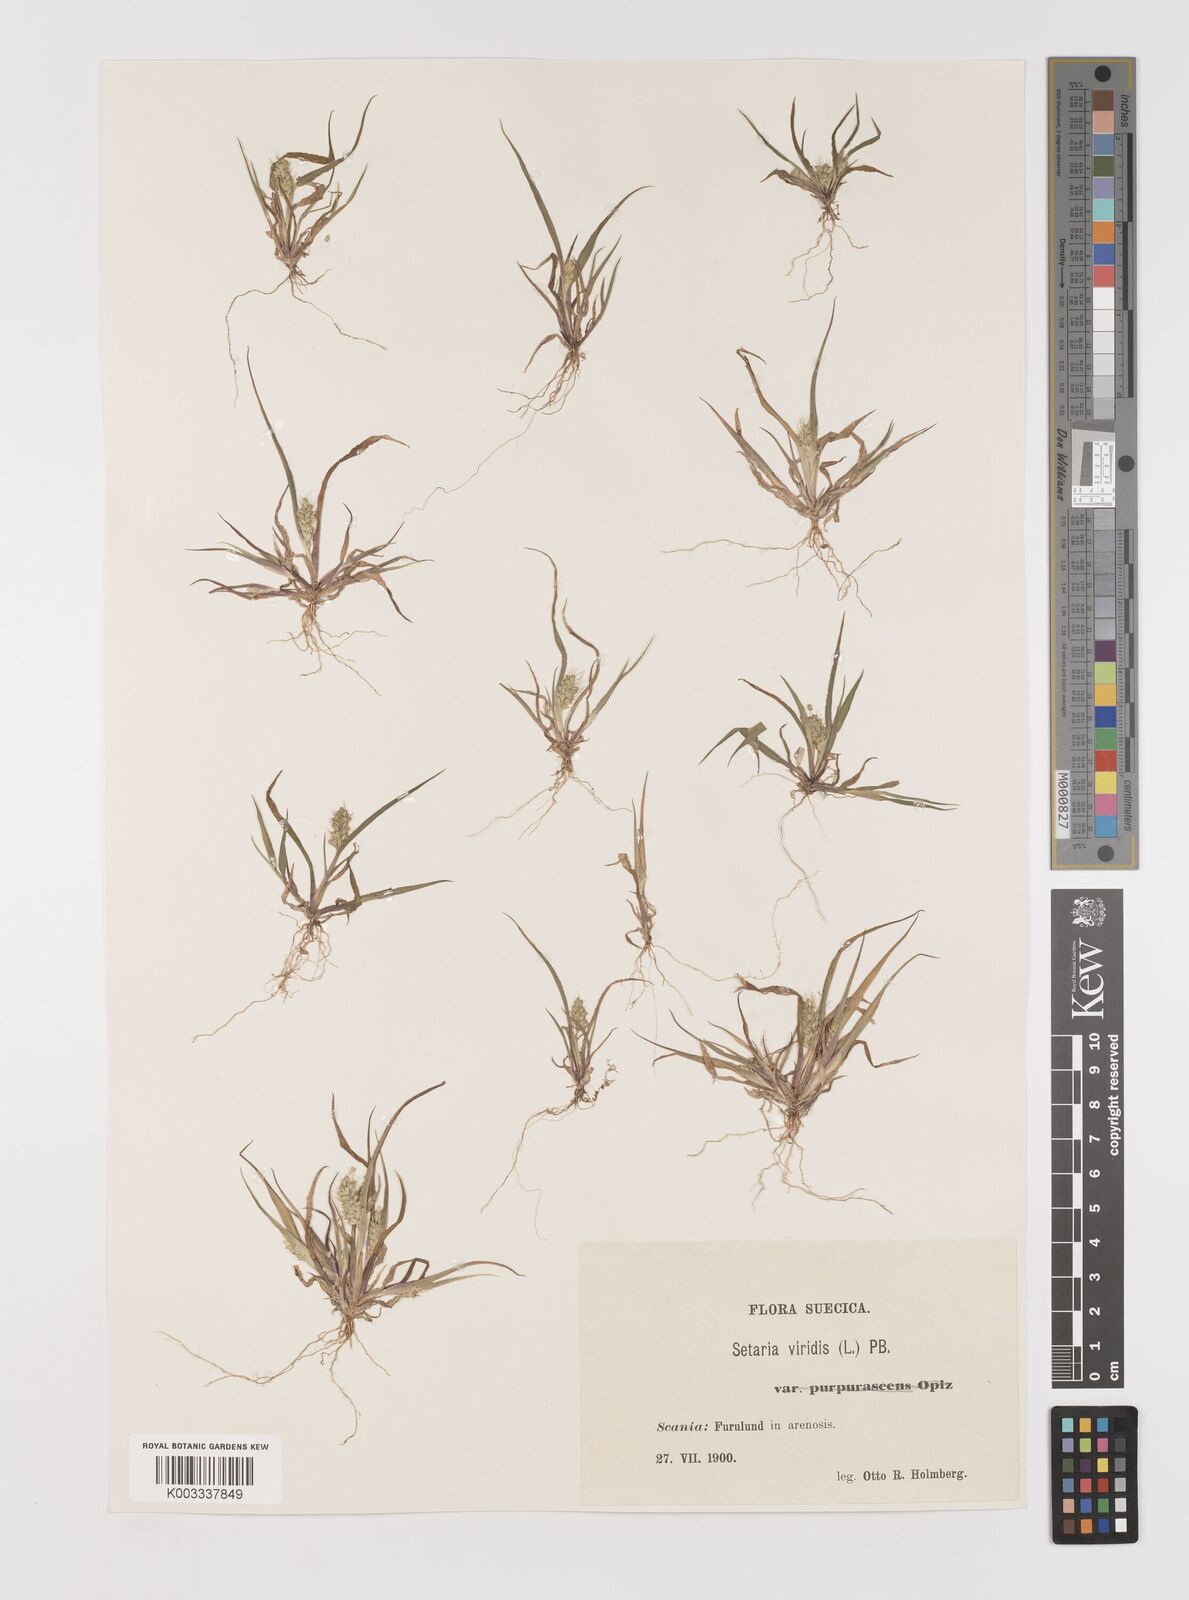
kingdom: Plantae
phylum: Tracheophyta
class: Liliopsida
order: Poales
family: Poaceae
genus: Setaria
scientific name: Setaria viridis
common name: Green bristlegrass
